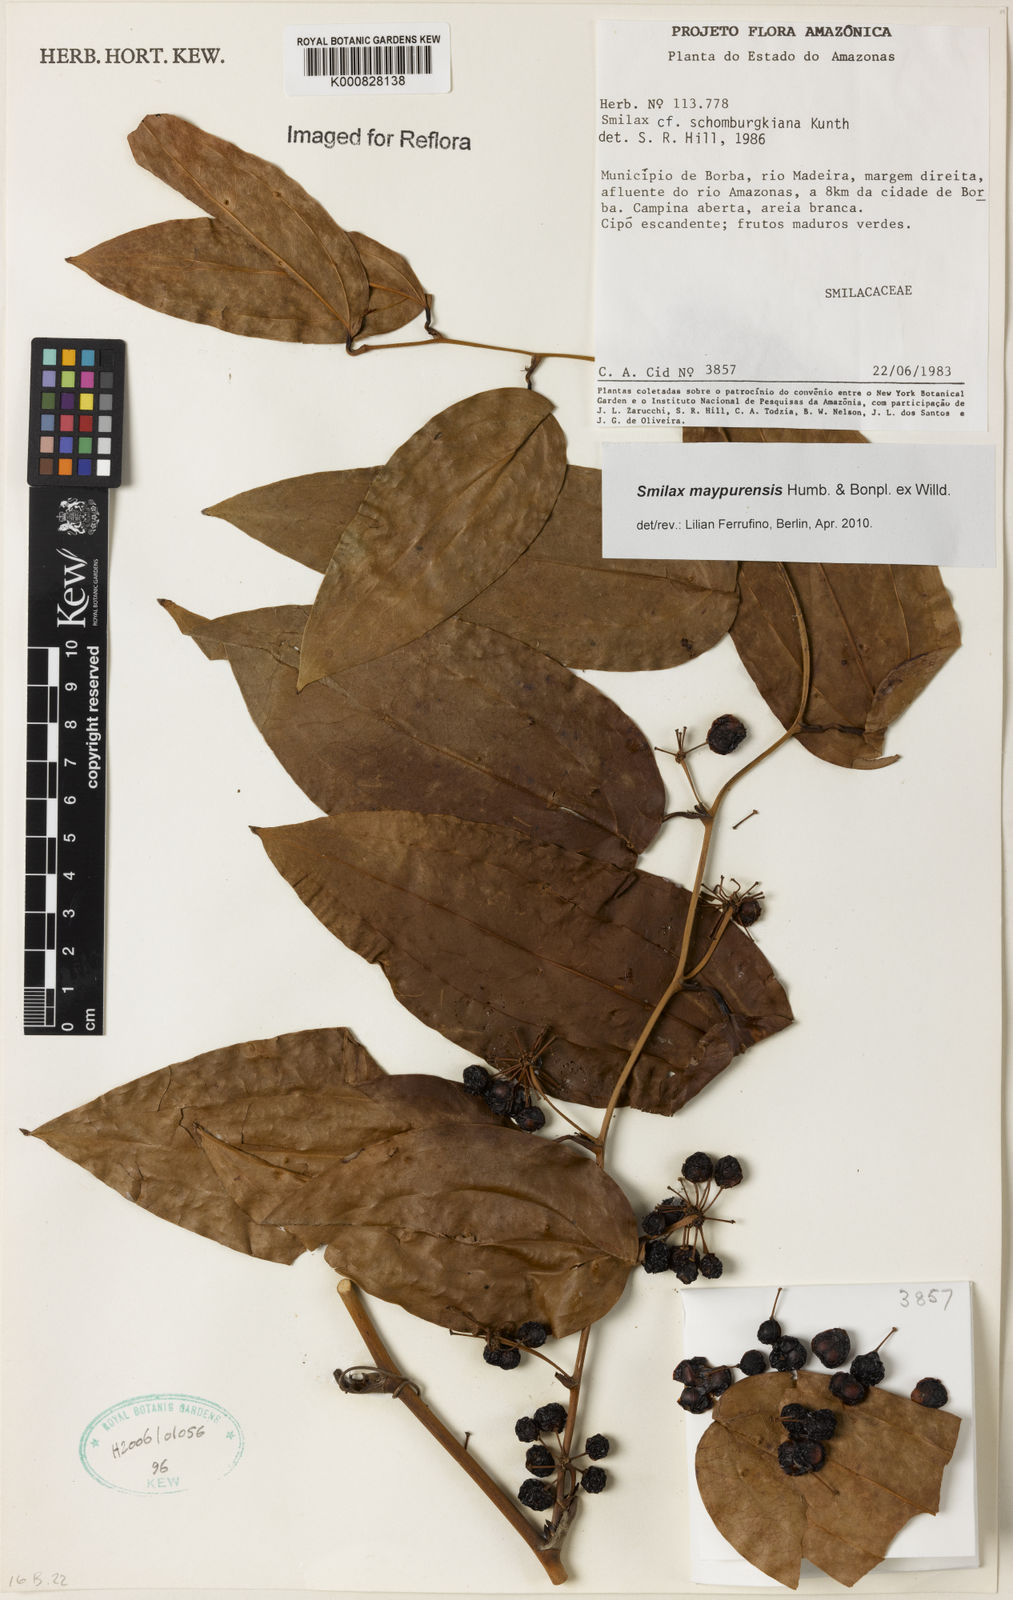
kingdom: Plantae
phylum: Tracheophyta
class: Liliopsida
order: Liliales
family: Smilacaceae
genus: Smilax
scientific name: Smilax maypurensis
